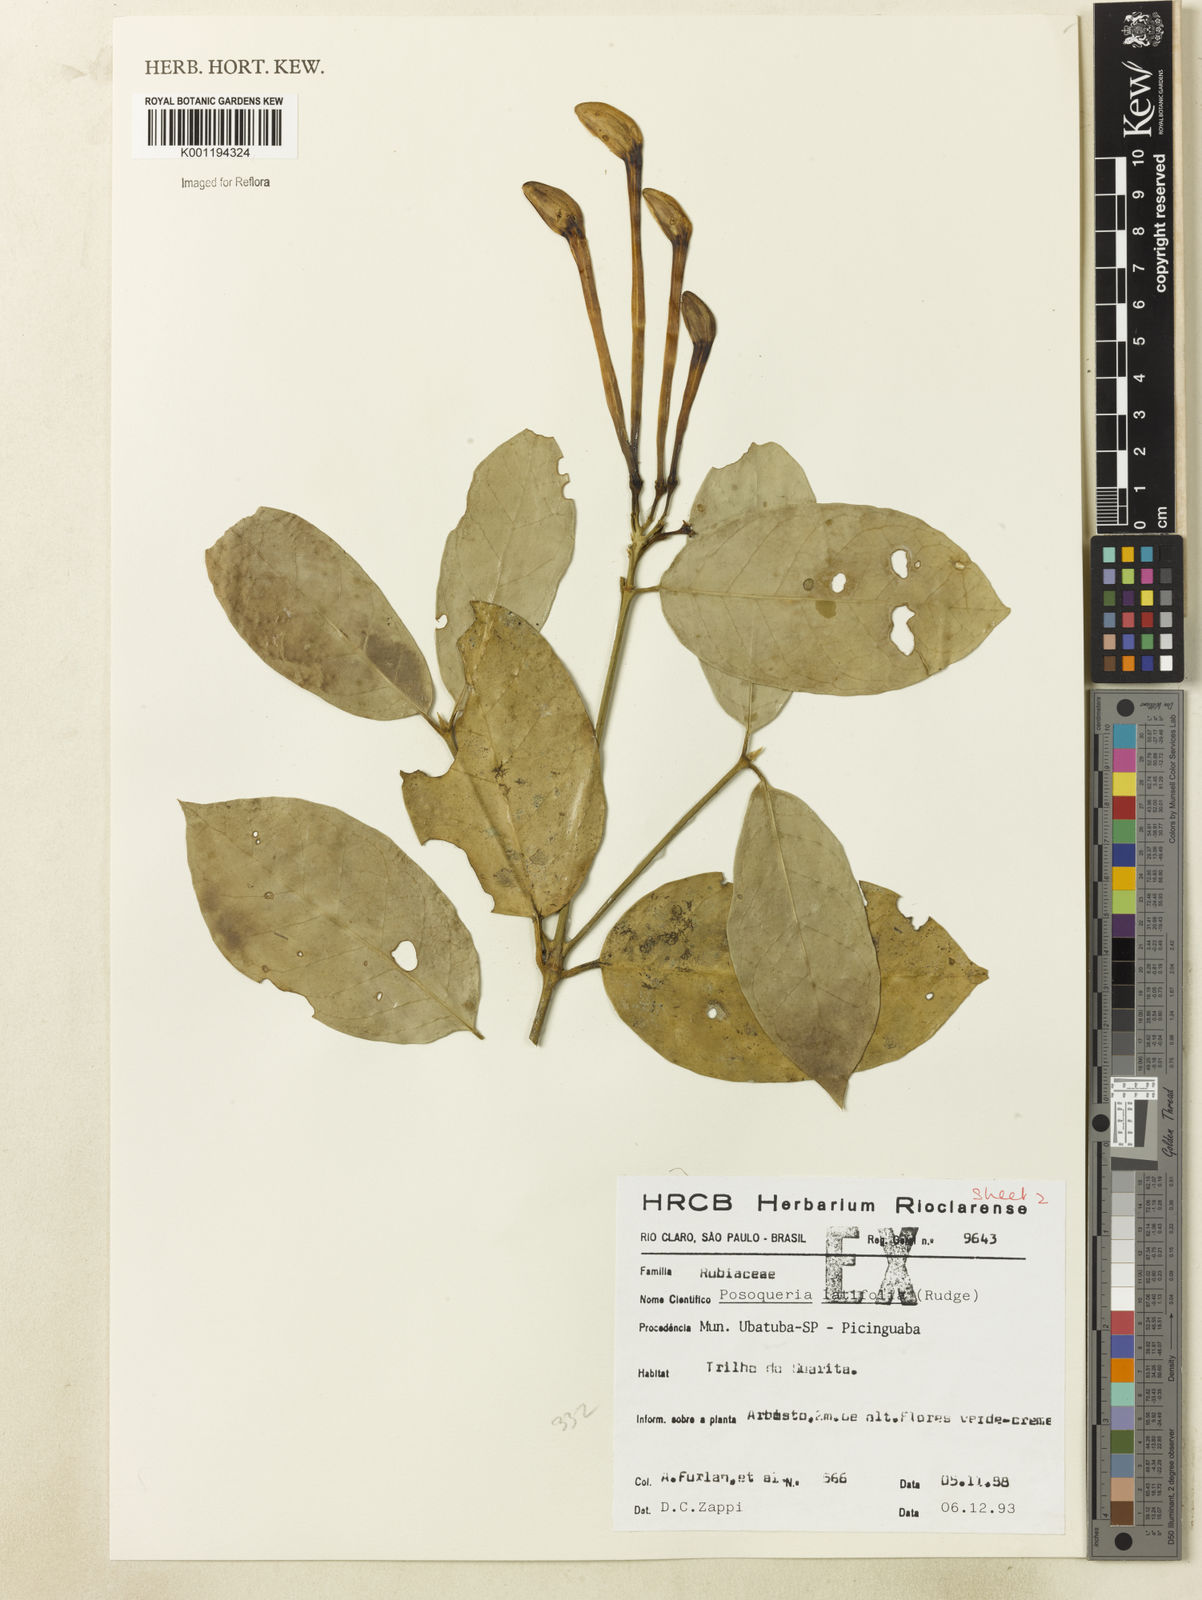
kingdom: Plantae
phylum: Tracheophyta
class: Magnoliopsida
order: Gentianales
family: Rubiaceae
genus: Posoqueria
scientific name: Posoqueria latifolia
